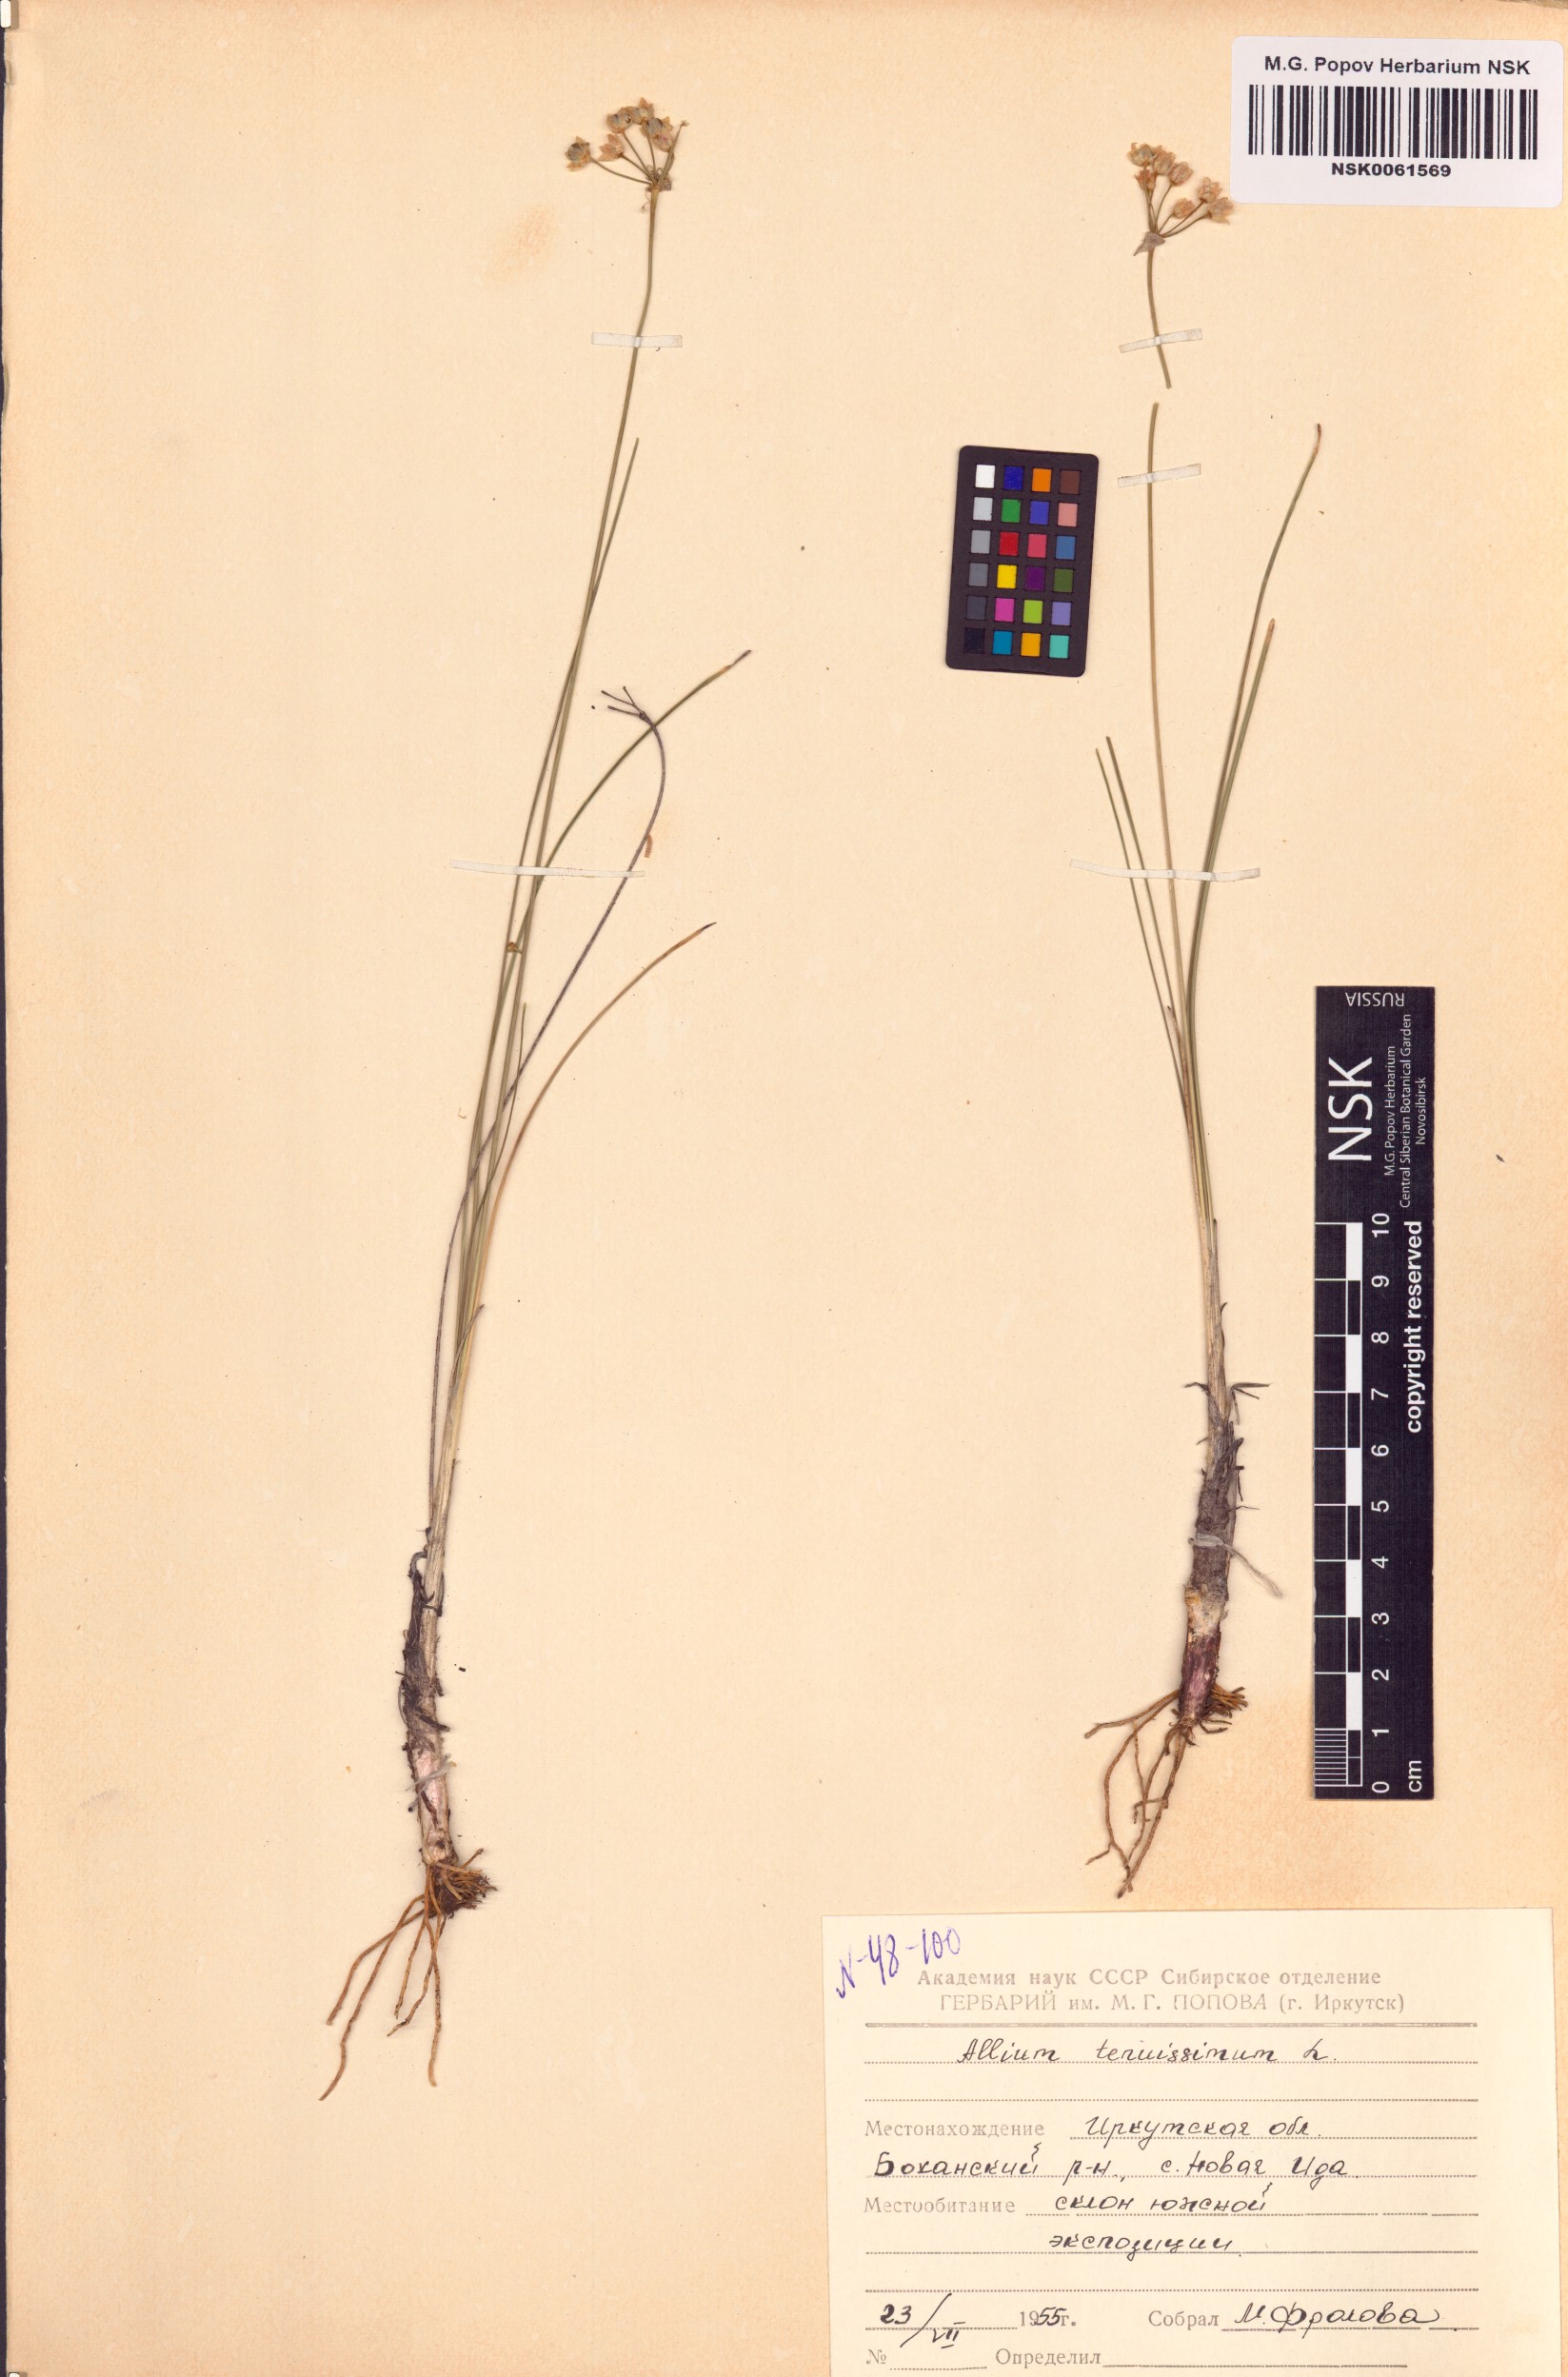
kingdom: Plantae
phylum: Tracheophyta
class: Liliopsida
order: Asparagales
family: Amaryllidaceae
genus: Allium
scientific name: Allium tenuissimum
